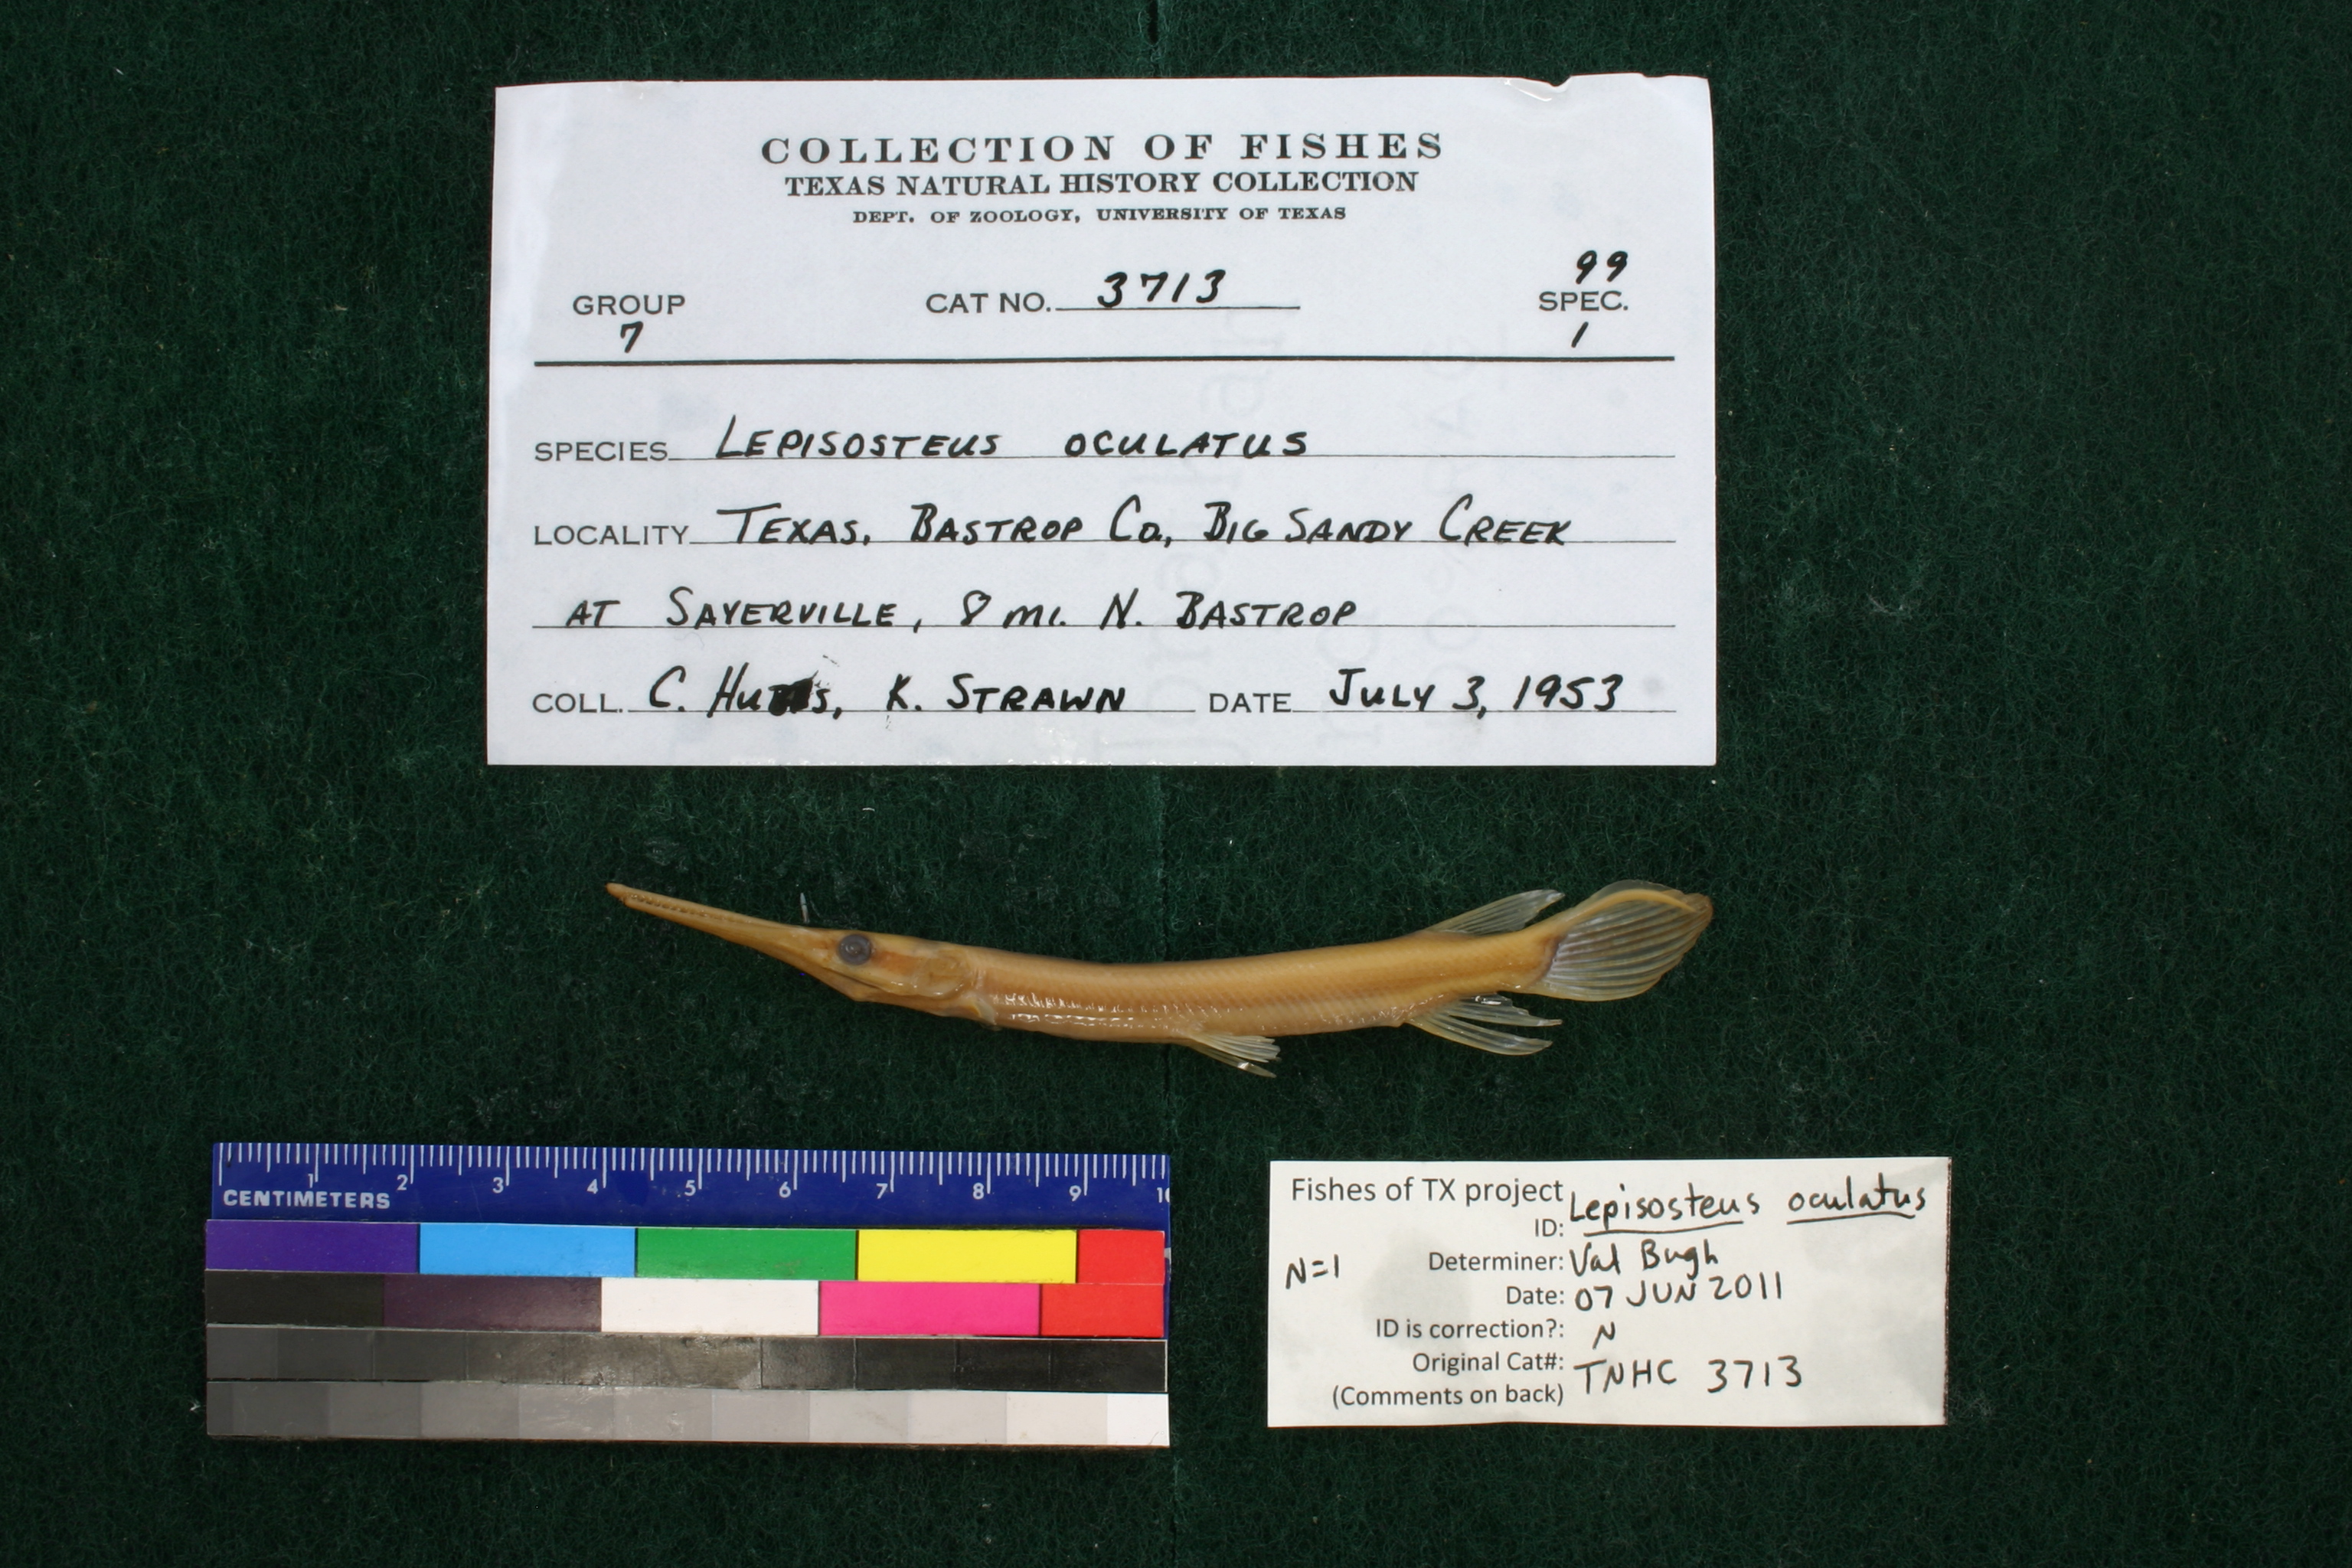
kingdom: Animalia
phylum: Chordata
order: Lepisosteiformes
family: Lepisosteidae
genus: Lepisosteus
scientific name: Lepisosteus oculatus
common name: Spotted gar
